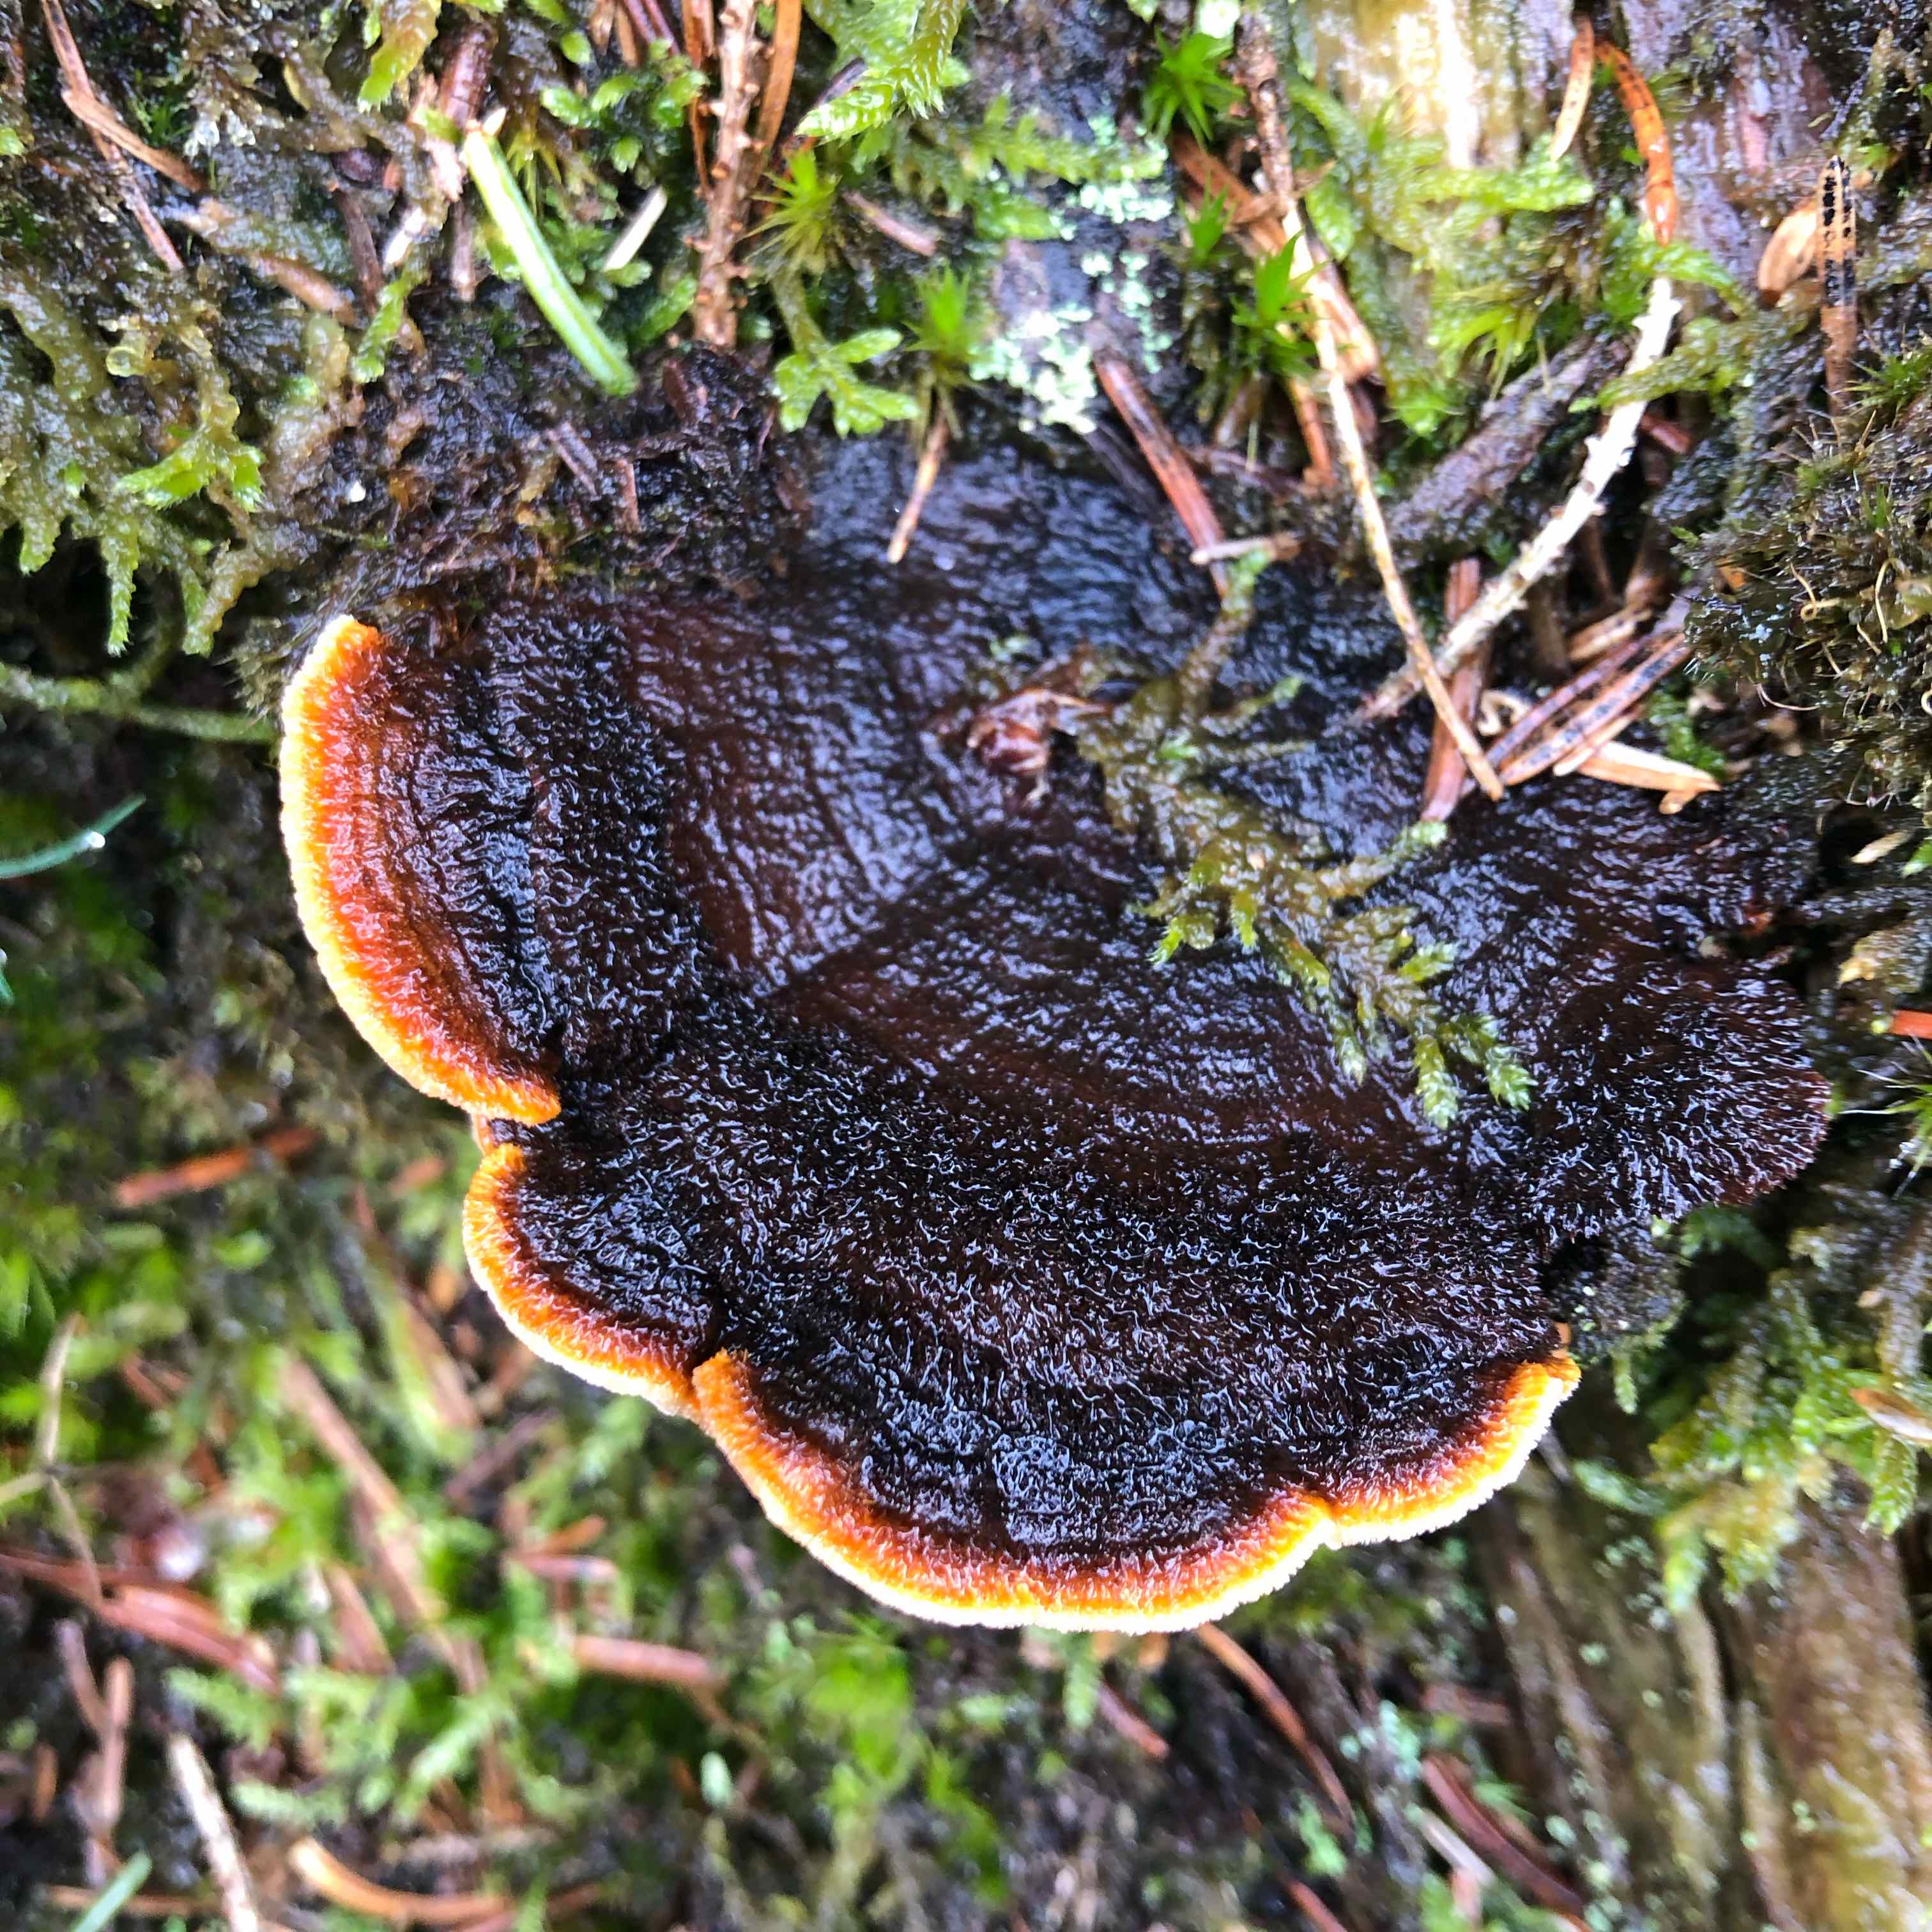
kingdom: Fungi
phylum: Basidiomycota
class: Agaricomycetes
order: Gloeophyllales
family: Gloeophyllaceae
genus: Gloeophyllum
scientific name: Gloeophyllum sepiarium
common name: fyrre-korkhat
